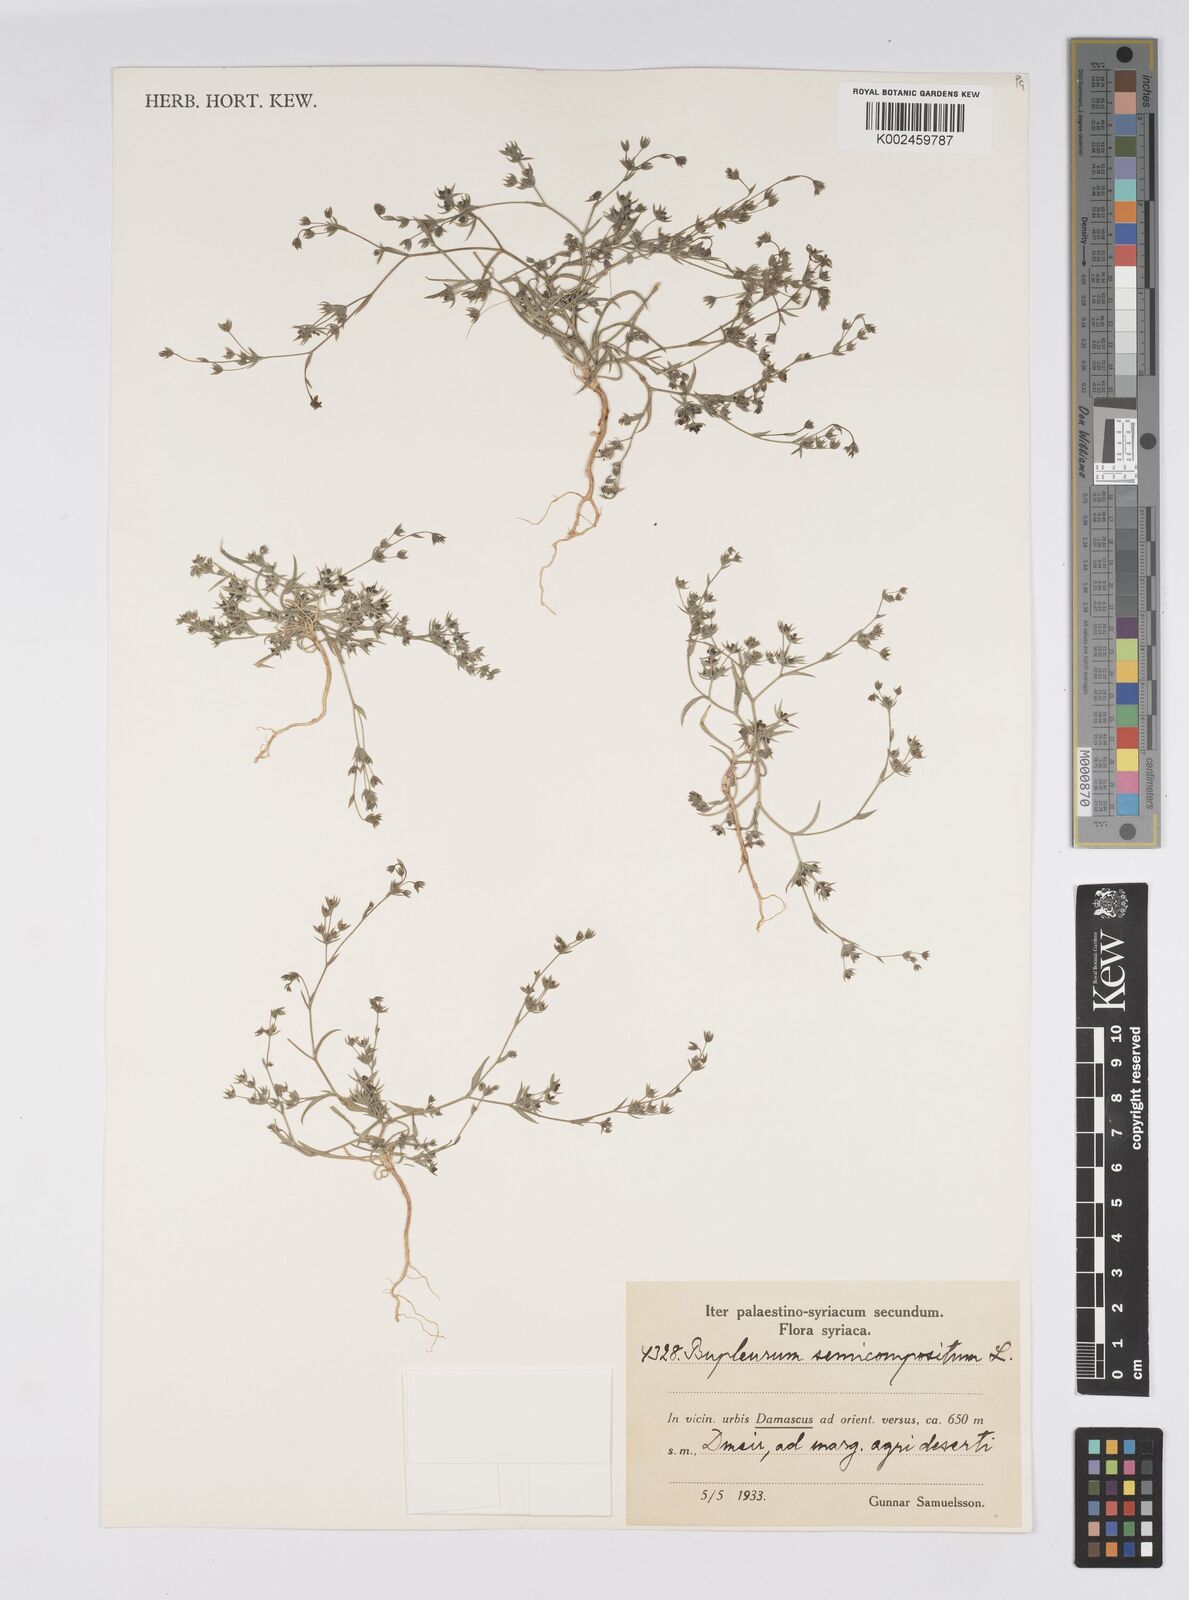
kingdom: Plantae
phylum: Tracheophyta
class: Magnoliopsida
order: Apiales
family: Apiaceae
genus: Bupleurum
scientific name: Bupleurum semicompositum
